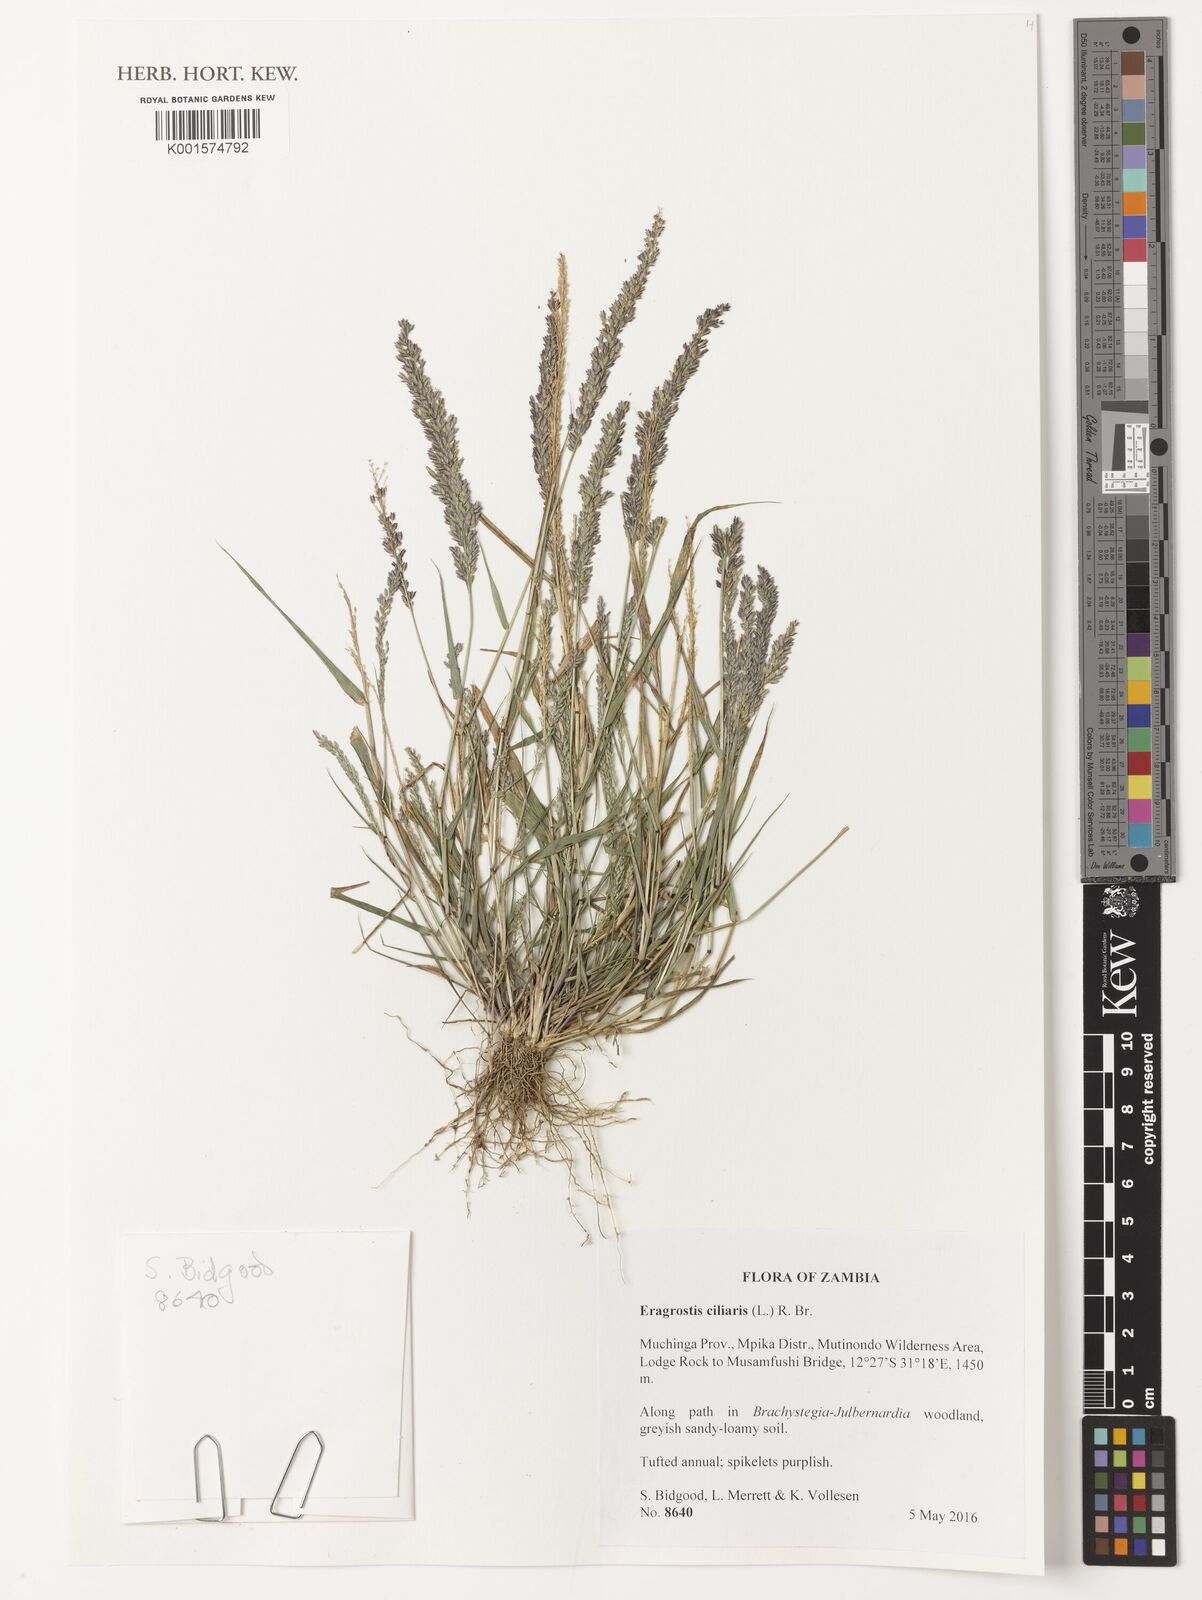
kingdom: Plantae
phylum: Tracheophyta
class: Liliopsida
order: Poales
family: Poaceae
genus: Eragrostis
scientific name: Eragrostis ciliaris
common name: Gophertail lovegrass
